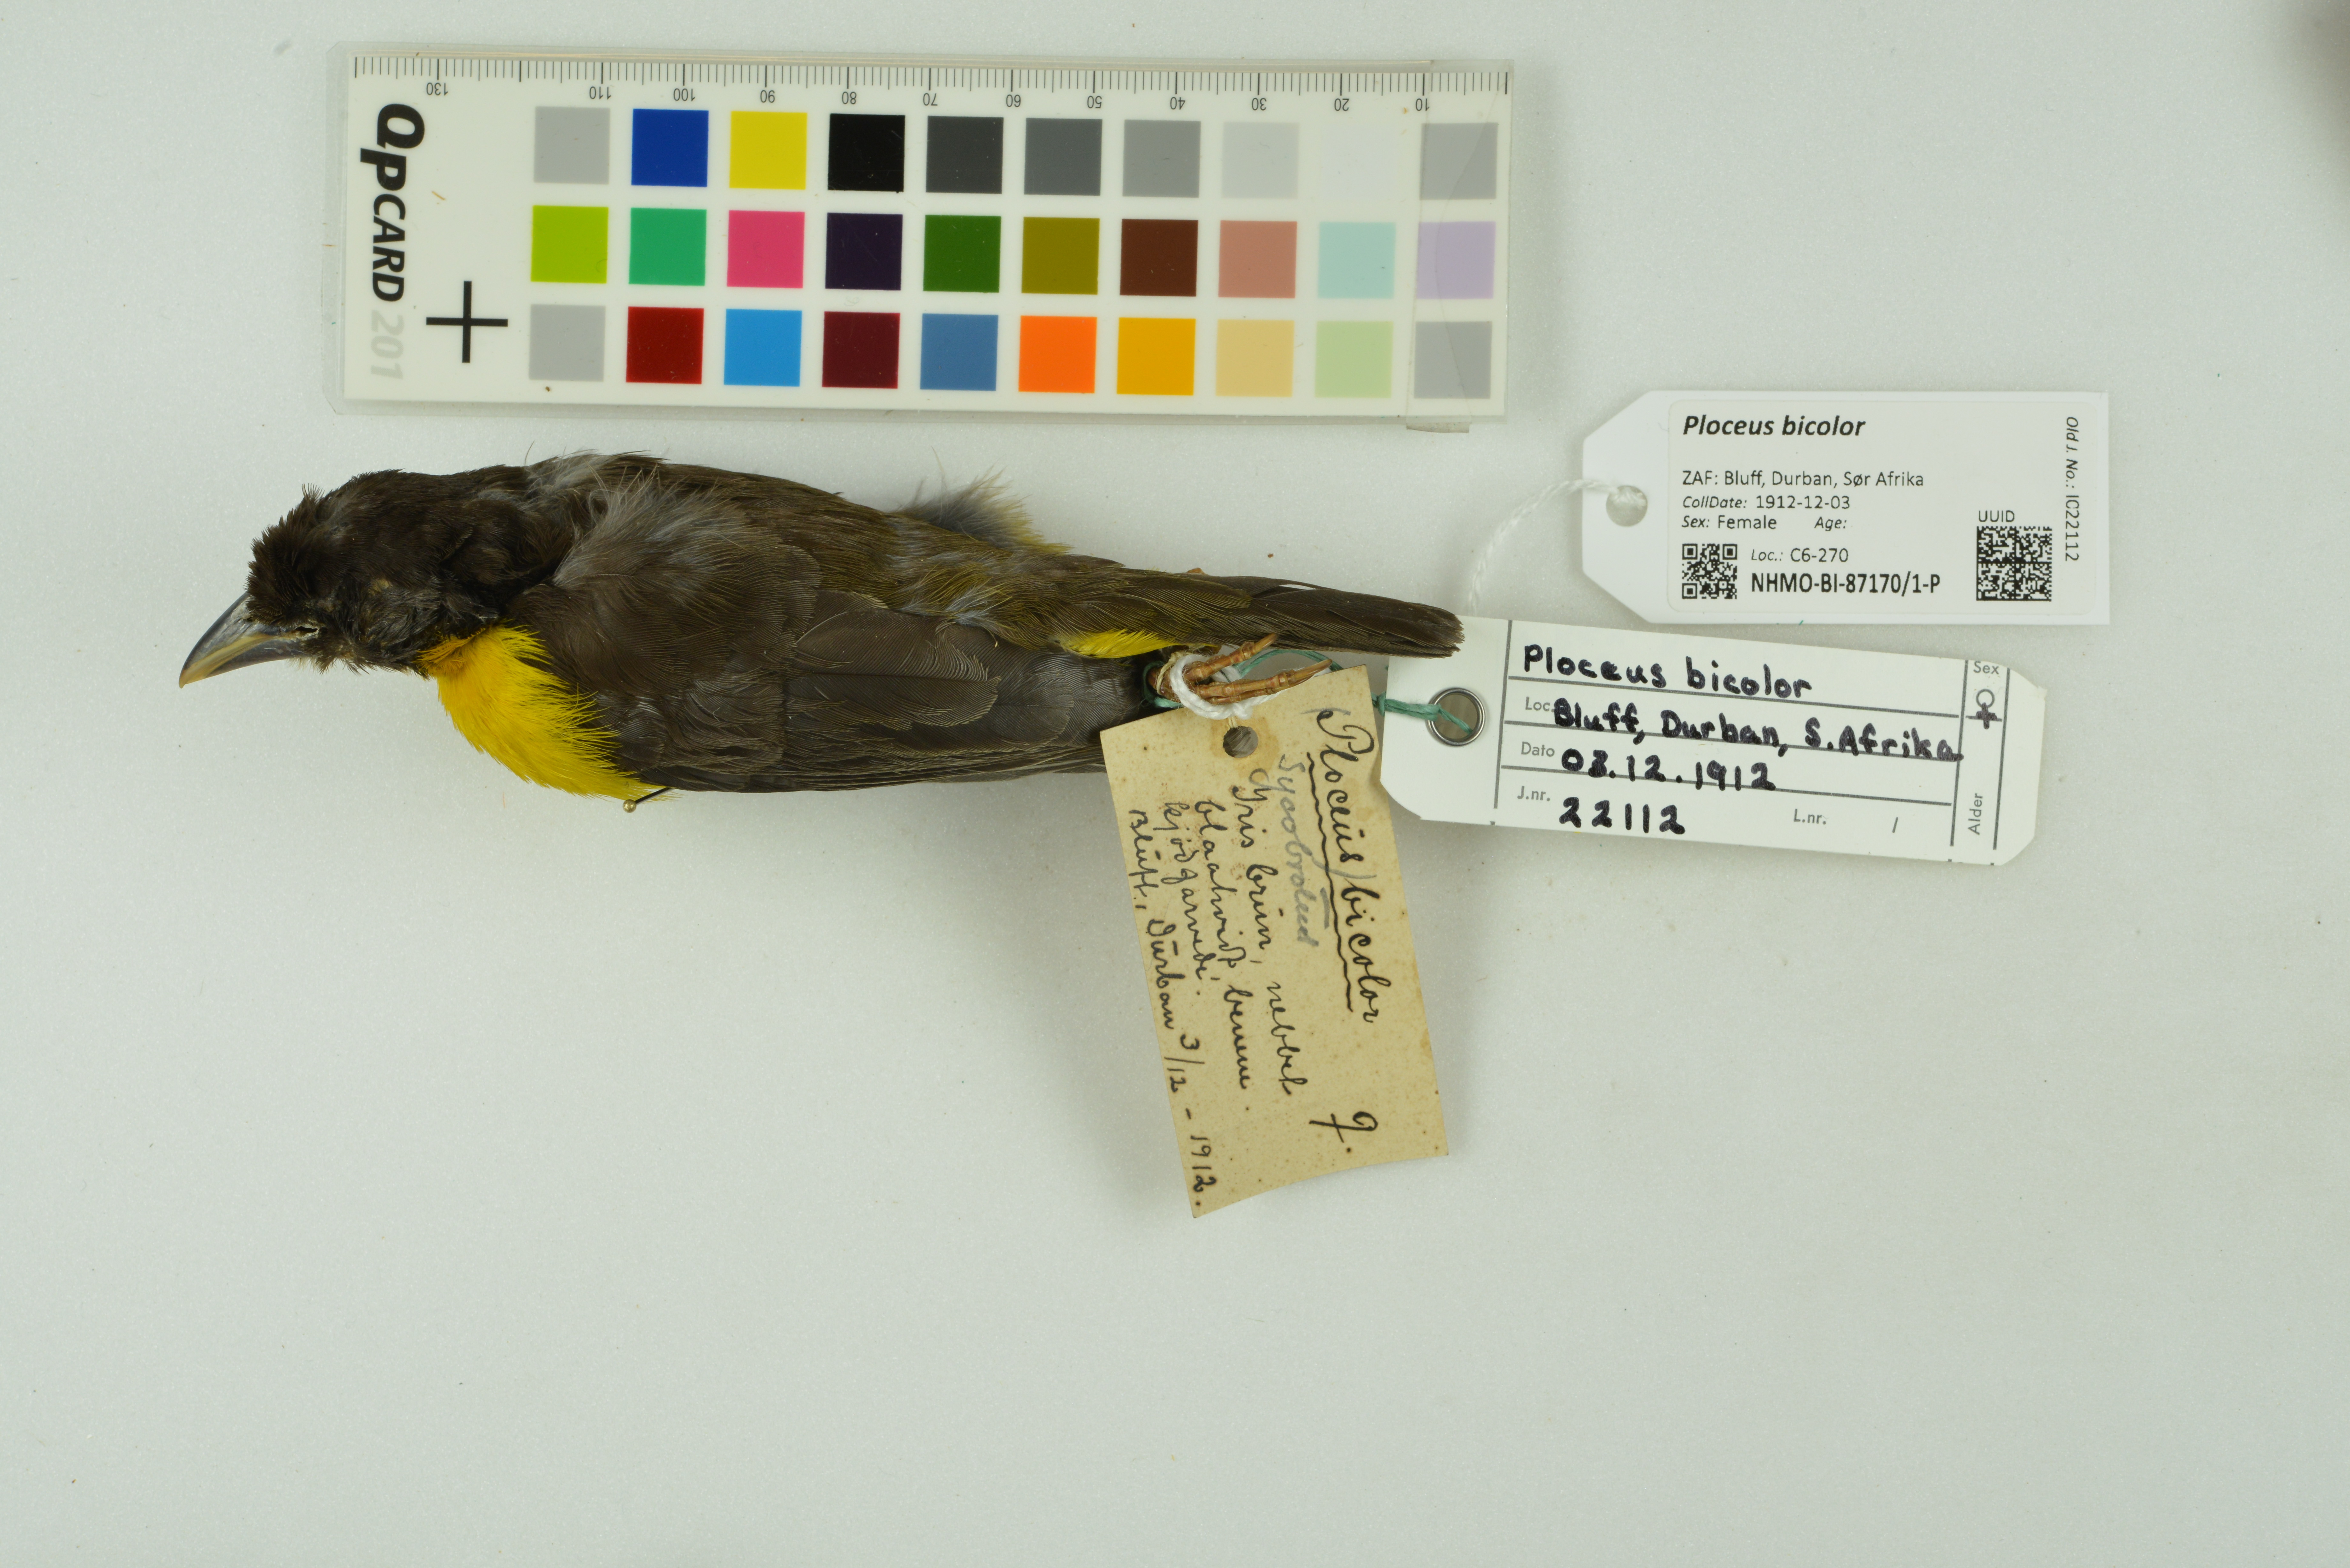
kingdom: Animalia
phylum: Chordata
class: Aves
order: Passeriformes
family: Ploceidae
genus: Ploceus
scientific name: Ploceus bicolor
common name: Dark-backed weaver
